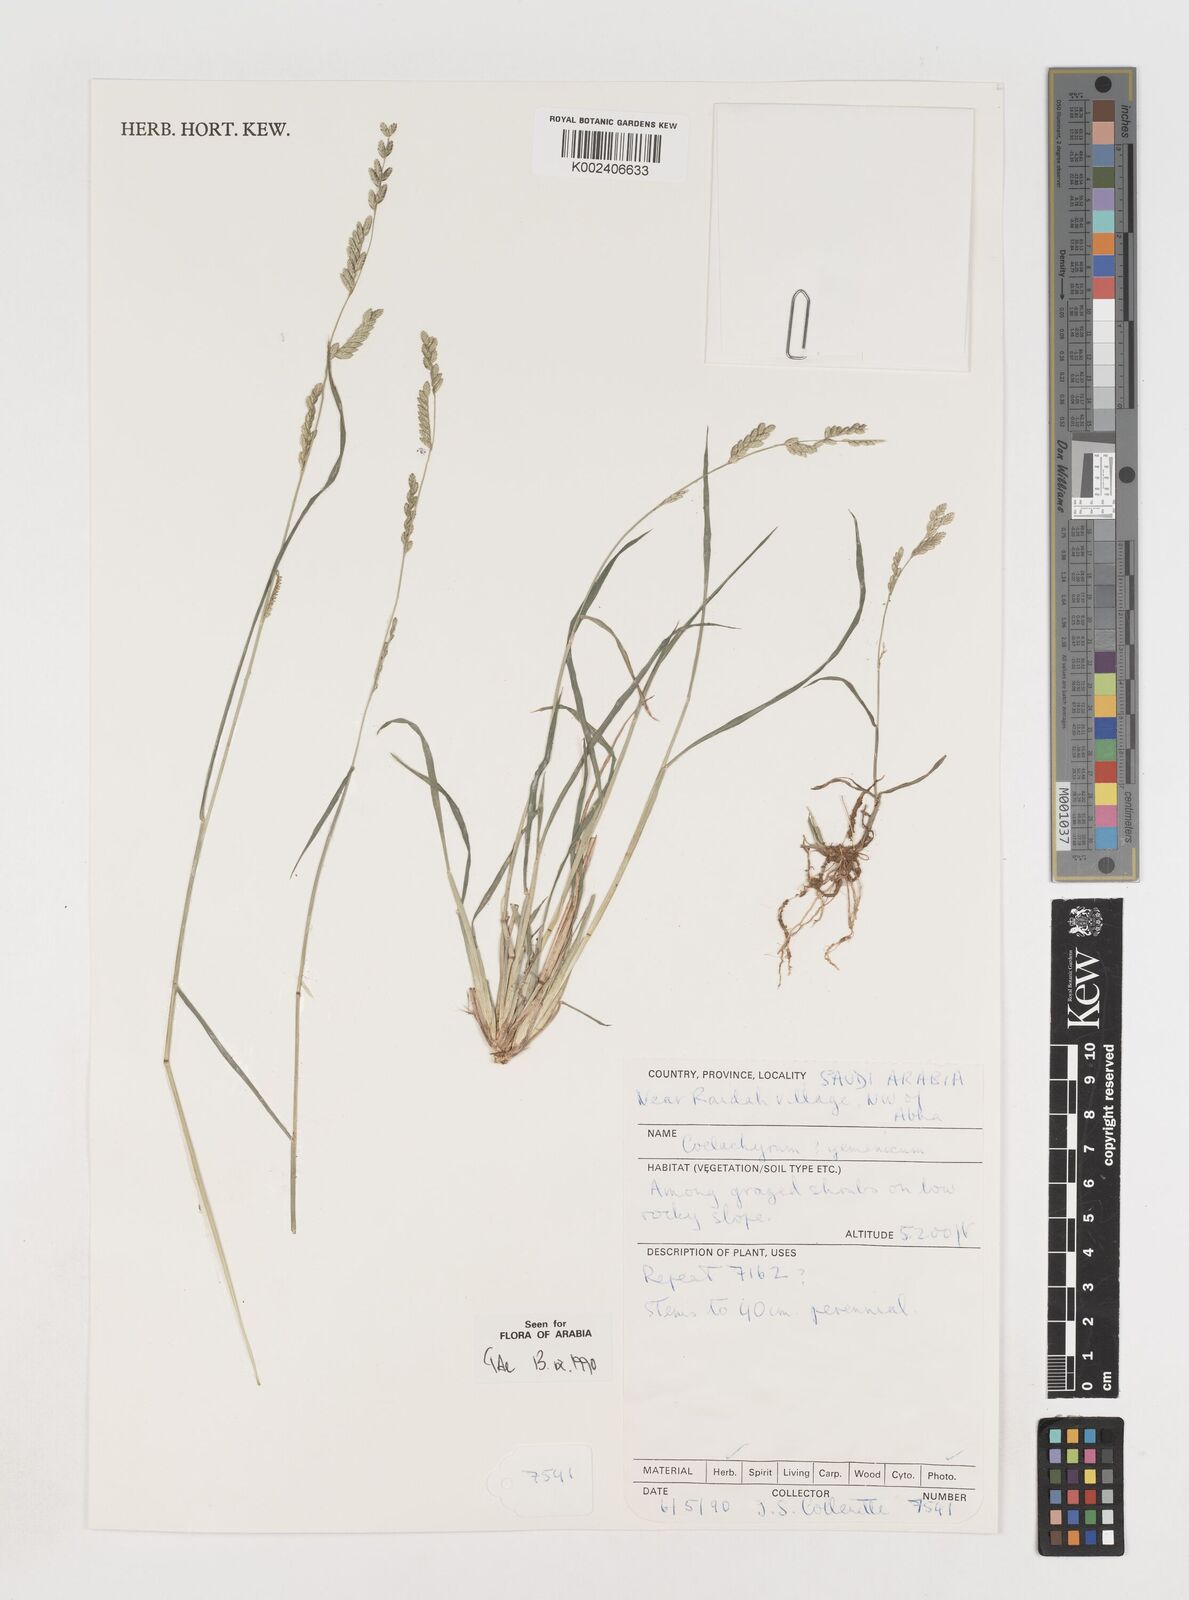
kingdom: Plantae
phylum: Tracheophyta
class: Liliopsida
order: Poales
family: Poaceae
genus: Disakisperma
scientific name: Disakisperma yemenicum
